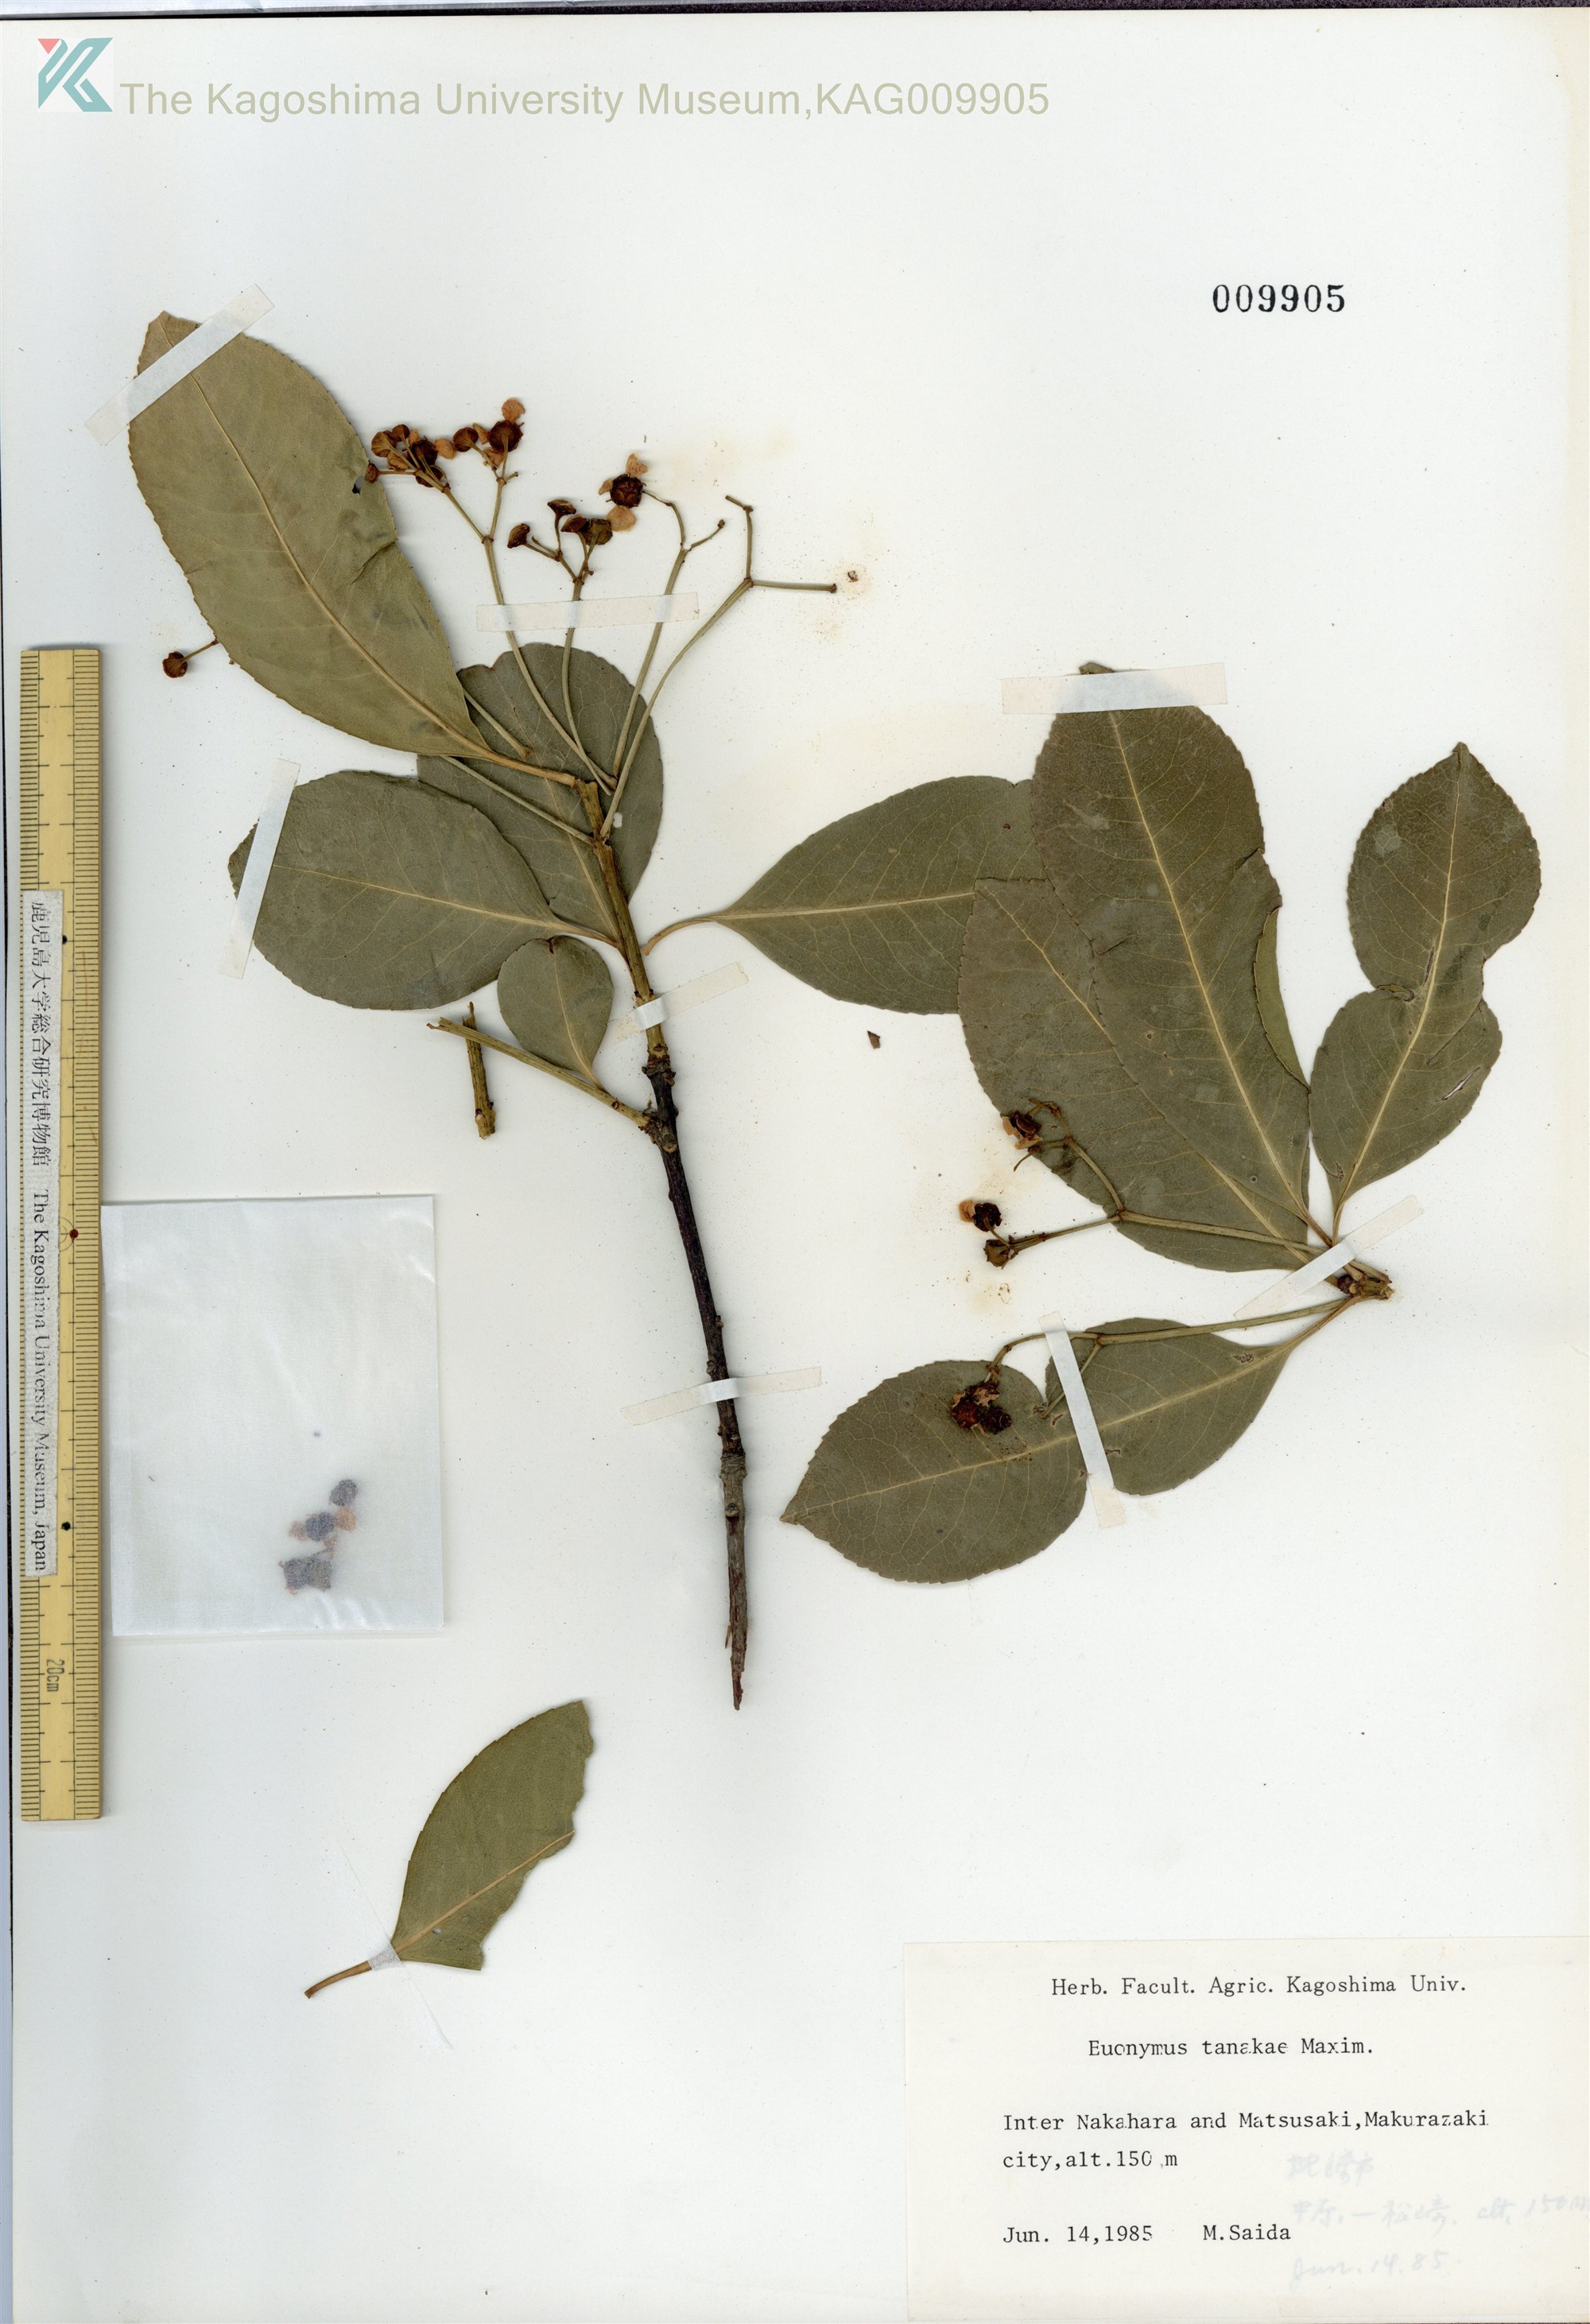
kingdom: Plantae
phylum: Tracheophyta
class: Magnoliopsida
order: Celastrales
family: Celastraceae
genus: Euonymus
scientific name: Euonymus carnosus
